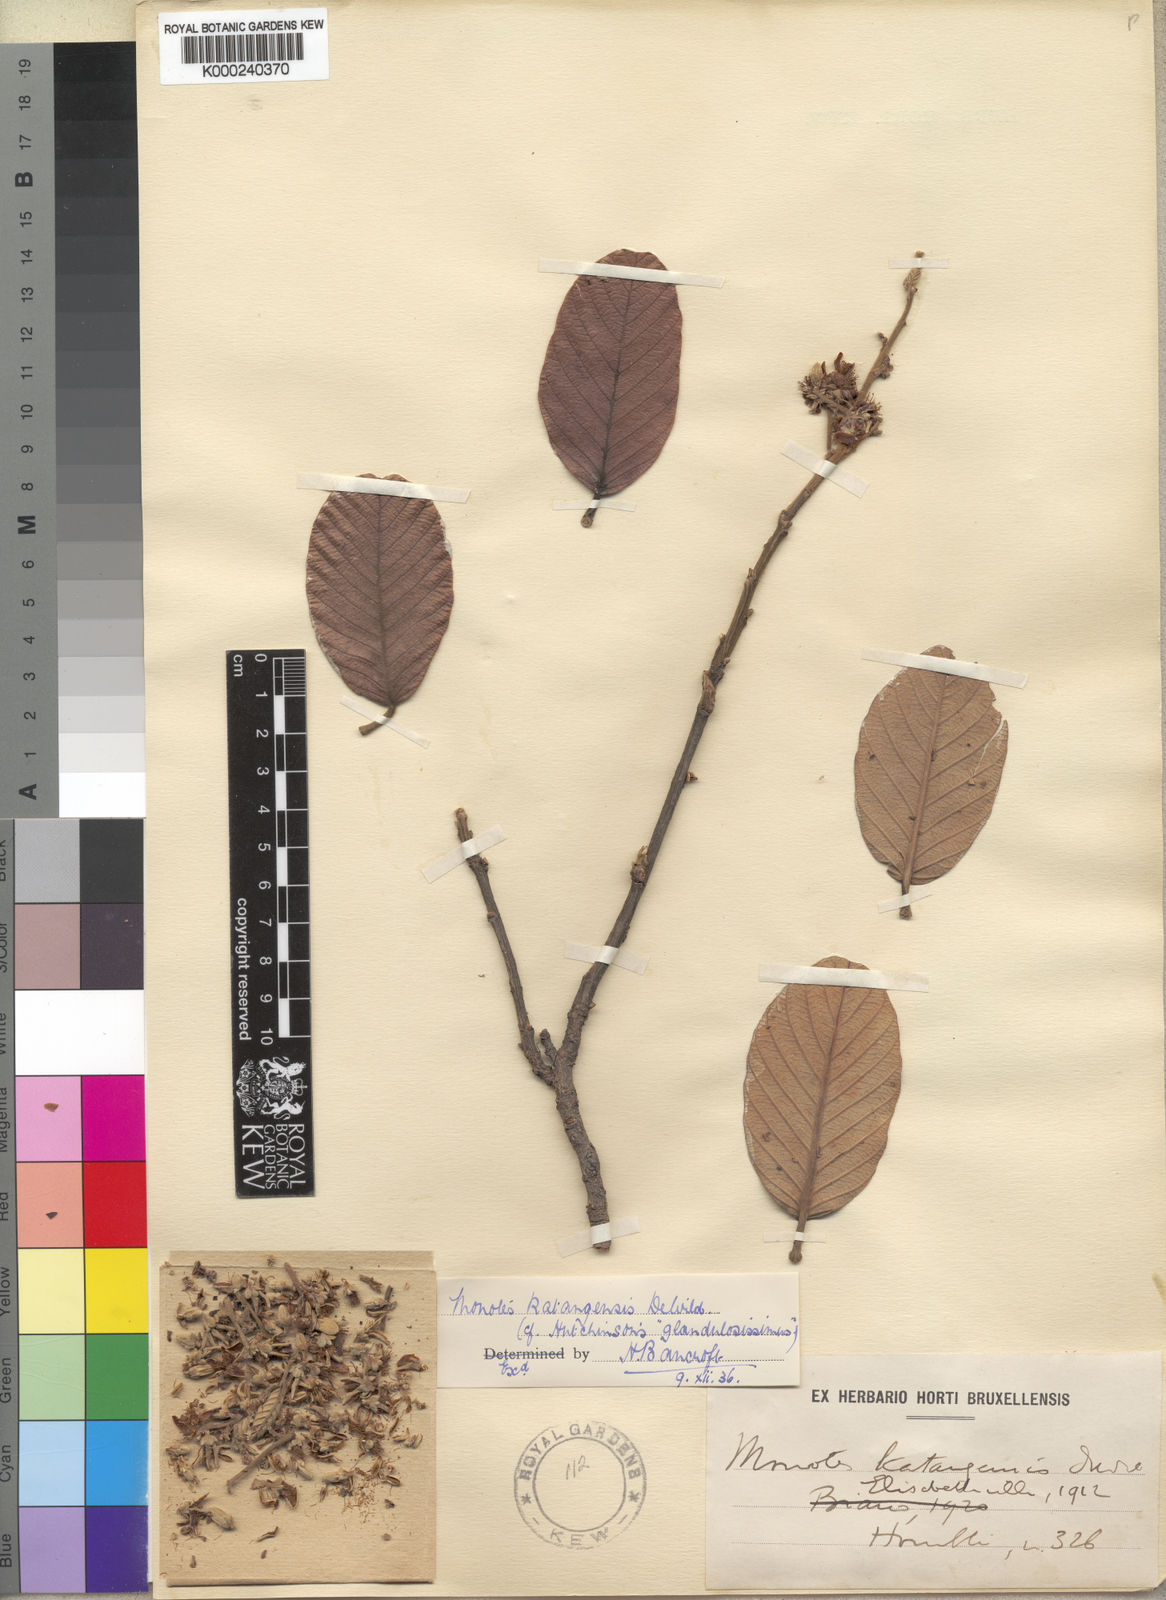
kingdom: Plantae
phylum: Tracheophyta
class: Magnoliopsida
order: Malvales
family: Dipterocarpaceae
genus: Monotes
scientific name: Monotes katangensis
